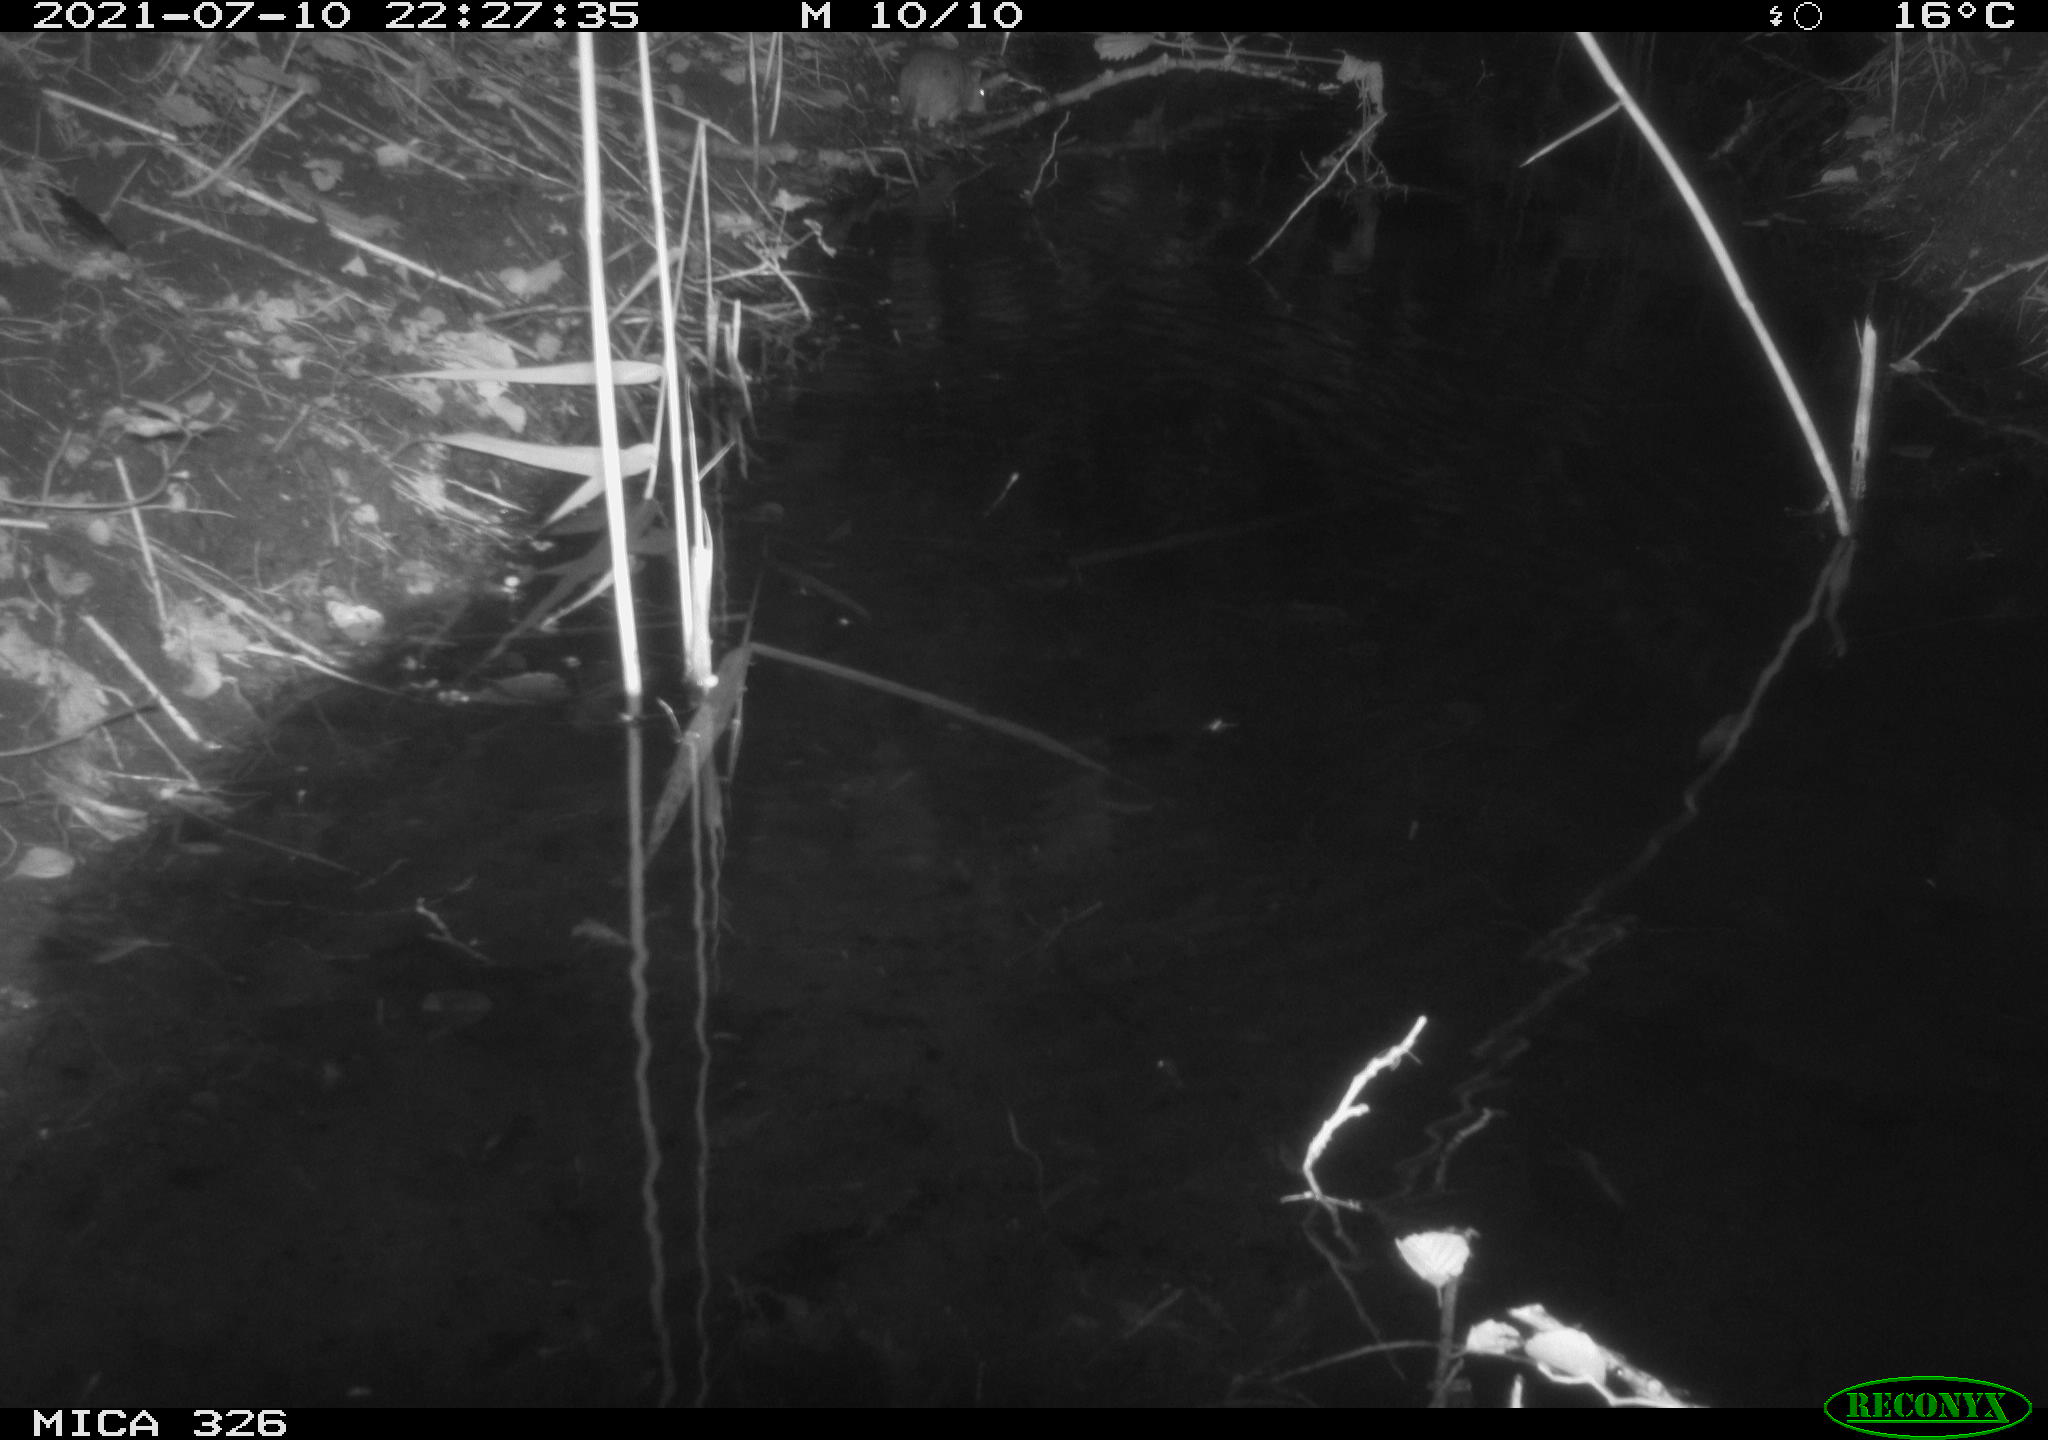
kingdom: Animalia
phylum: Chordata
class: Mammalia
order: Rodentia
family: Muridae
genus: Rattus
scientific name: Rattus norvegicus
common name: Brown rat
